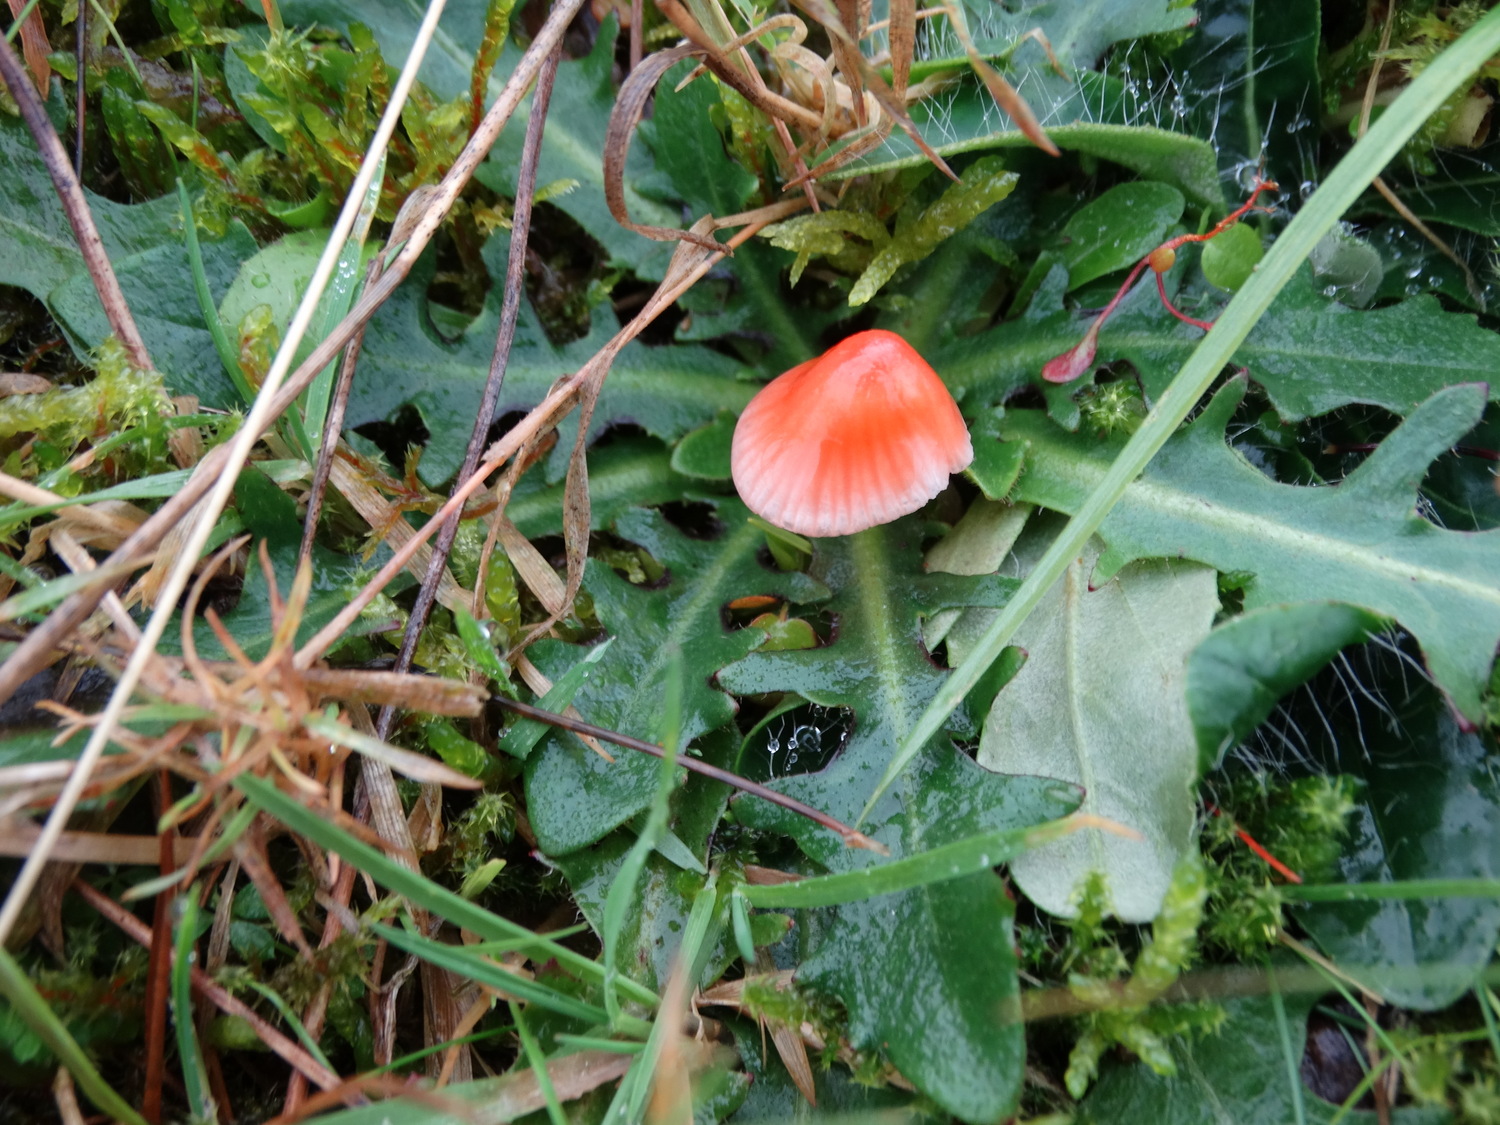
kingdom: Fungi
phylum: Basidiomycota
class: Agaricomycetes
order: Agaricales
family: Mycenaceae
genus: Atheniella
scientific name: Atheniella adonis
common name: rønnerød huesvamp
